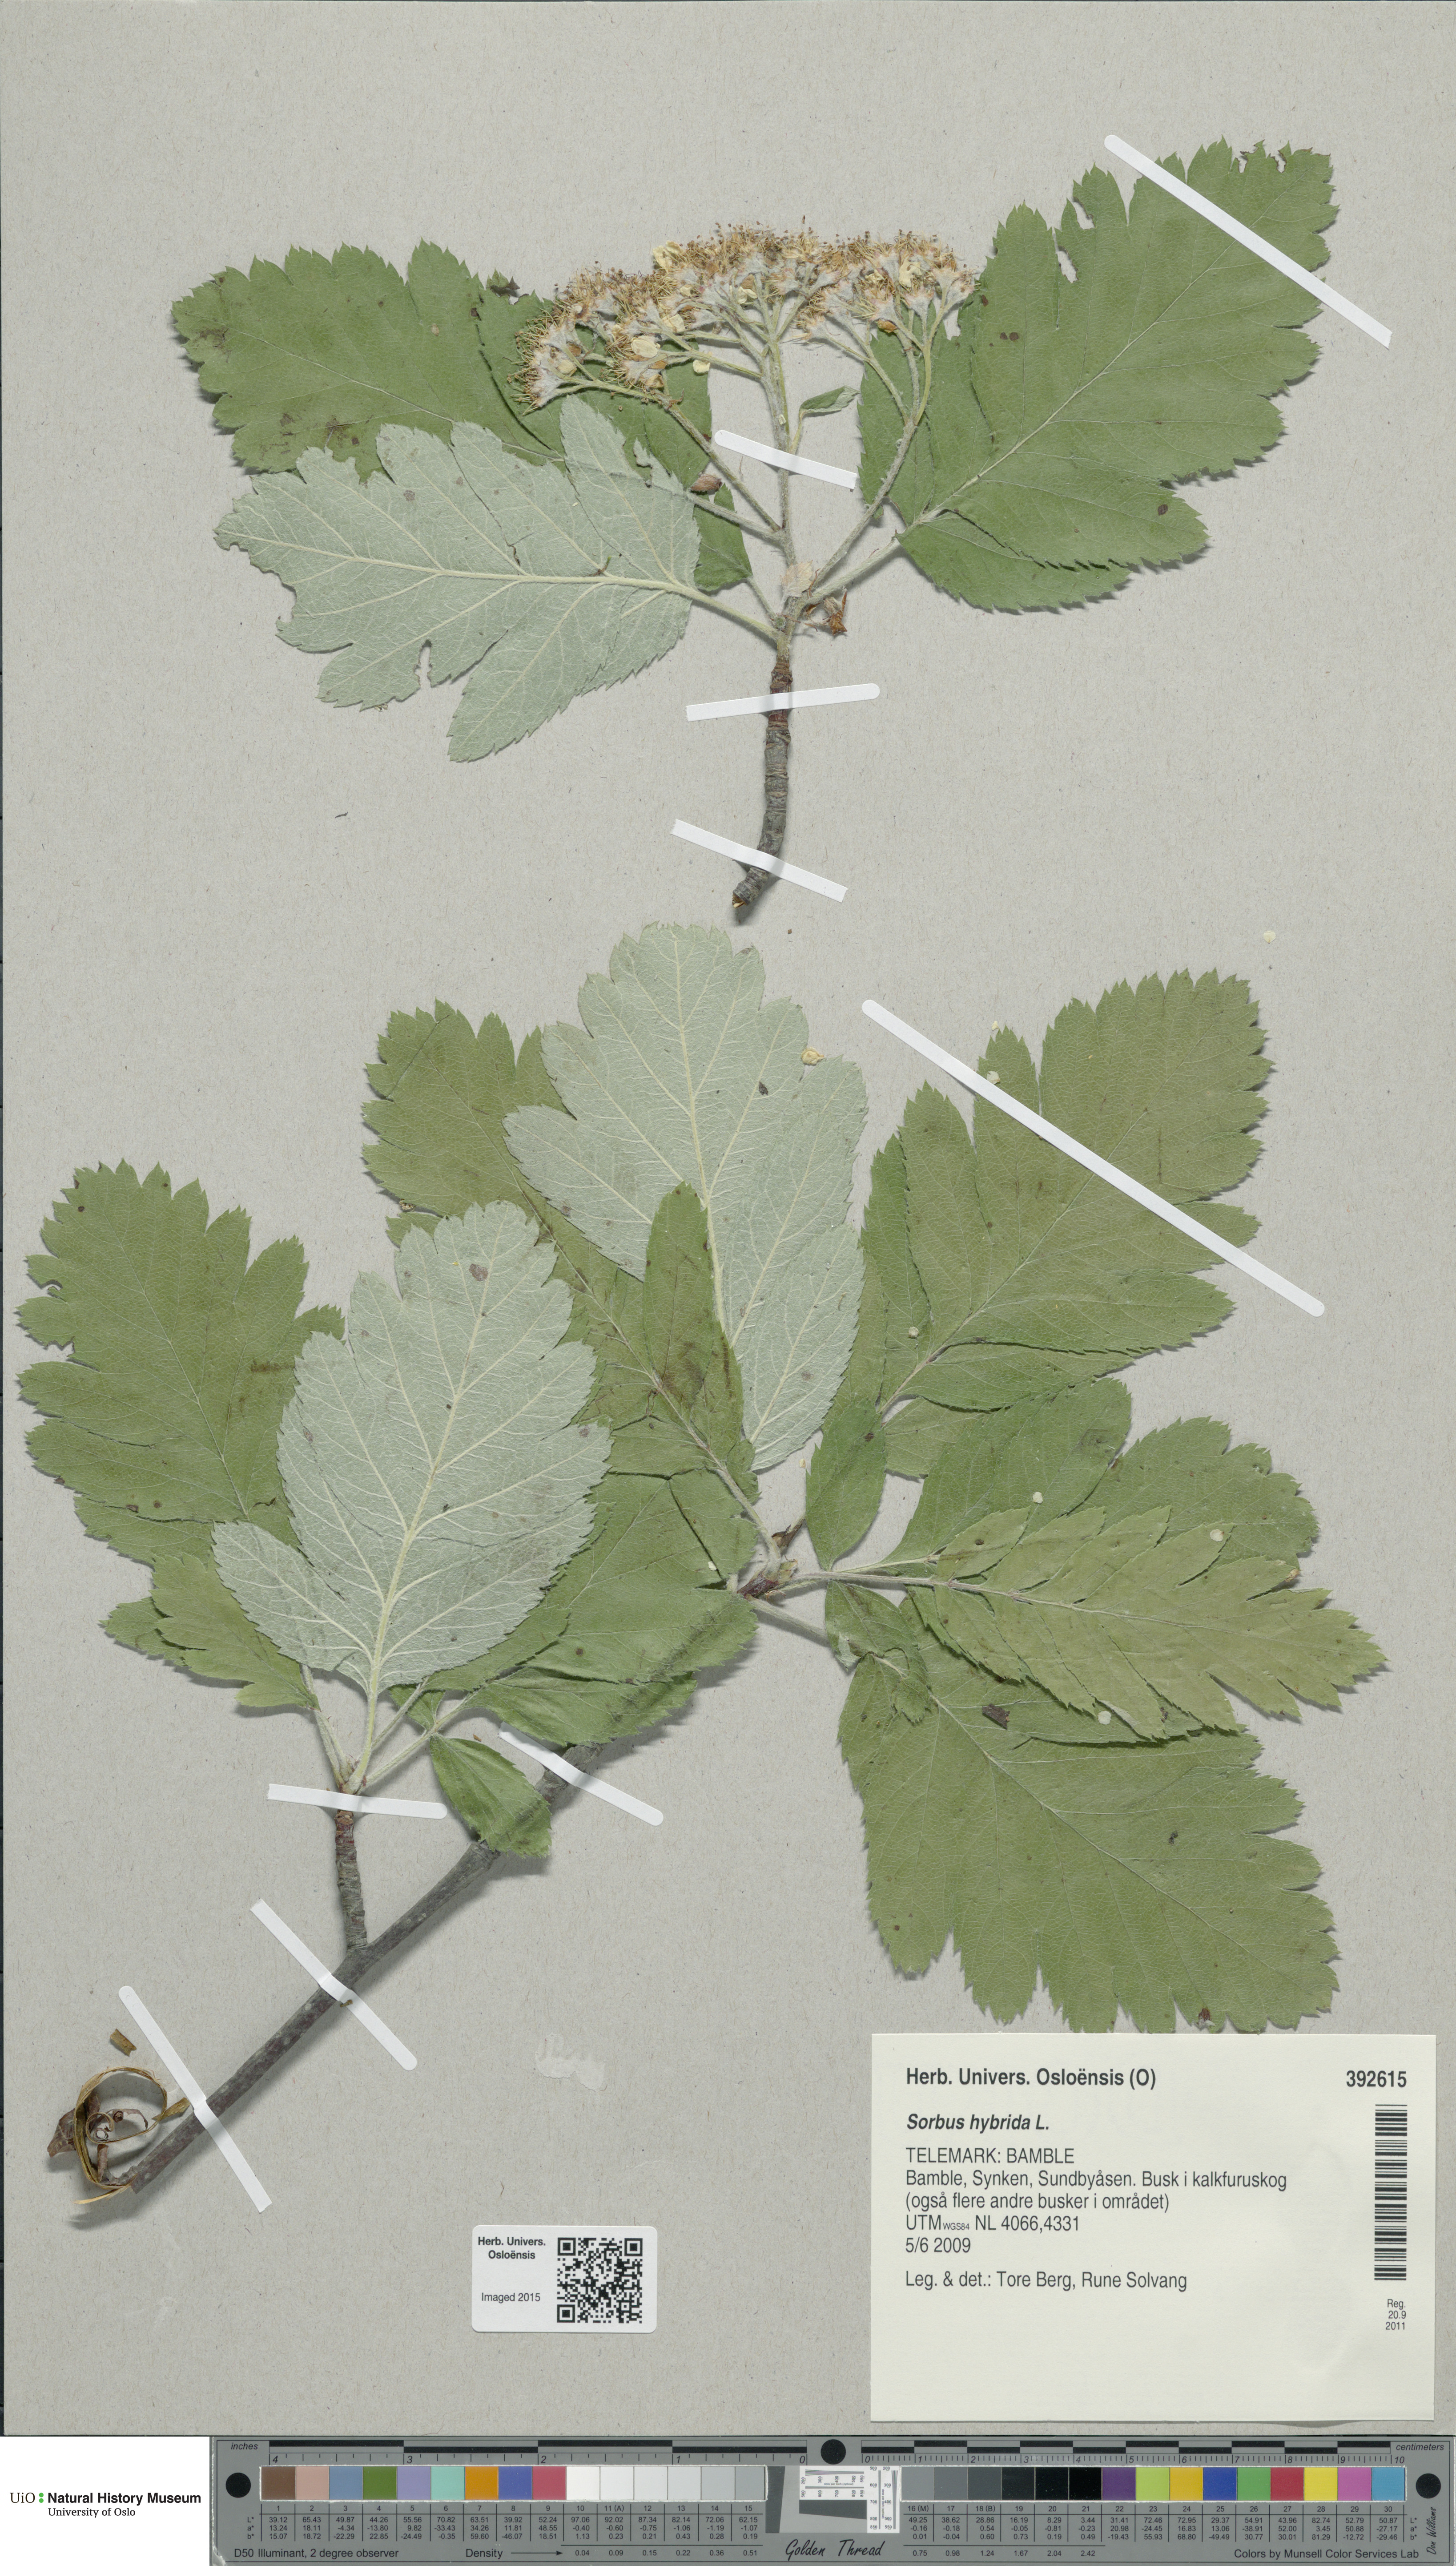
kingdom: Plantae
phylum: Tracheophyta
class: Magnoliopsida
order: Rosales
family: Rosaceae
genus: Hedlundia
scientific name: Hedlundia hybrida
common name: Swedish service-tree
